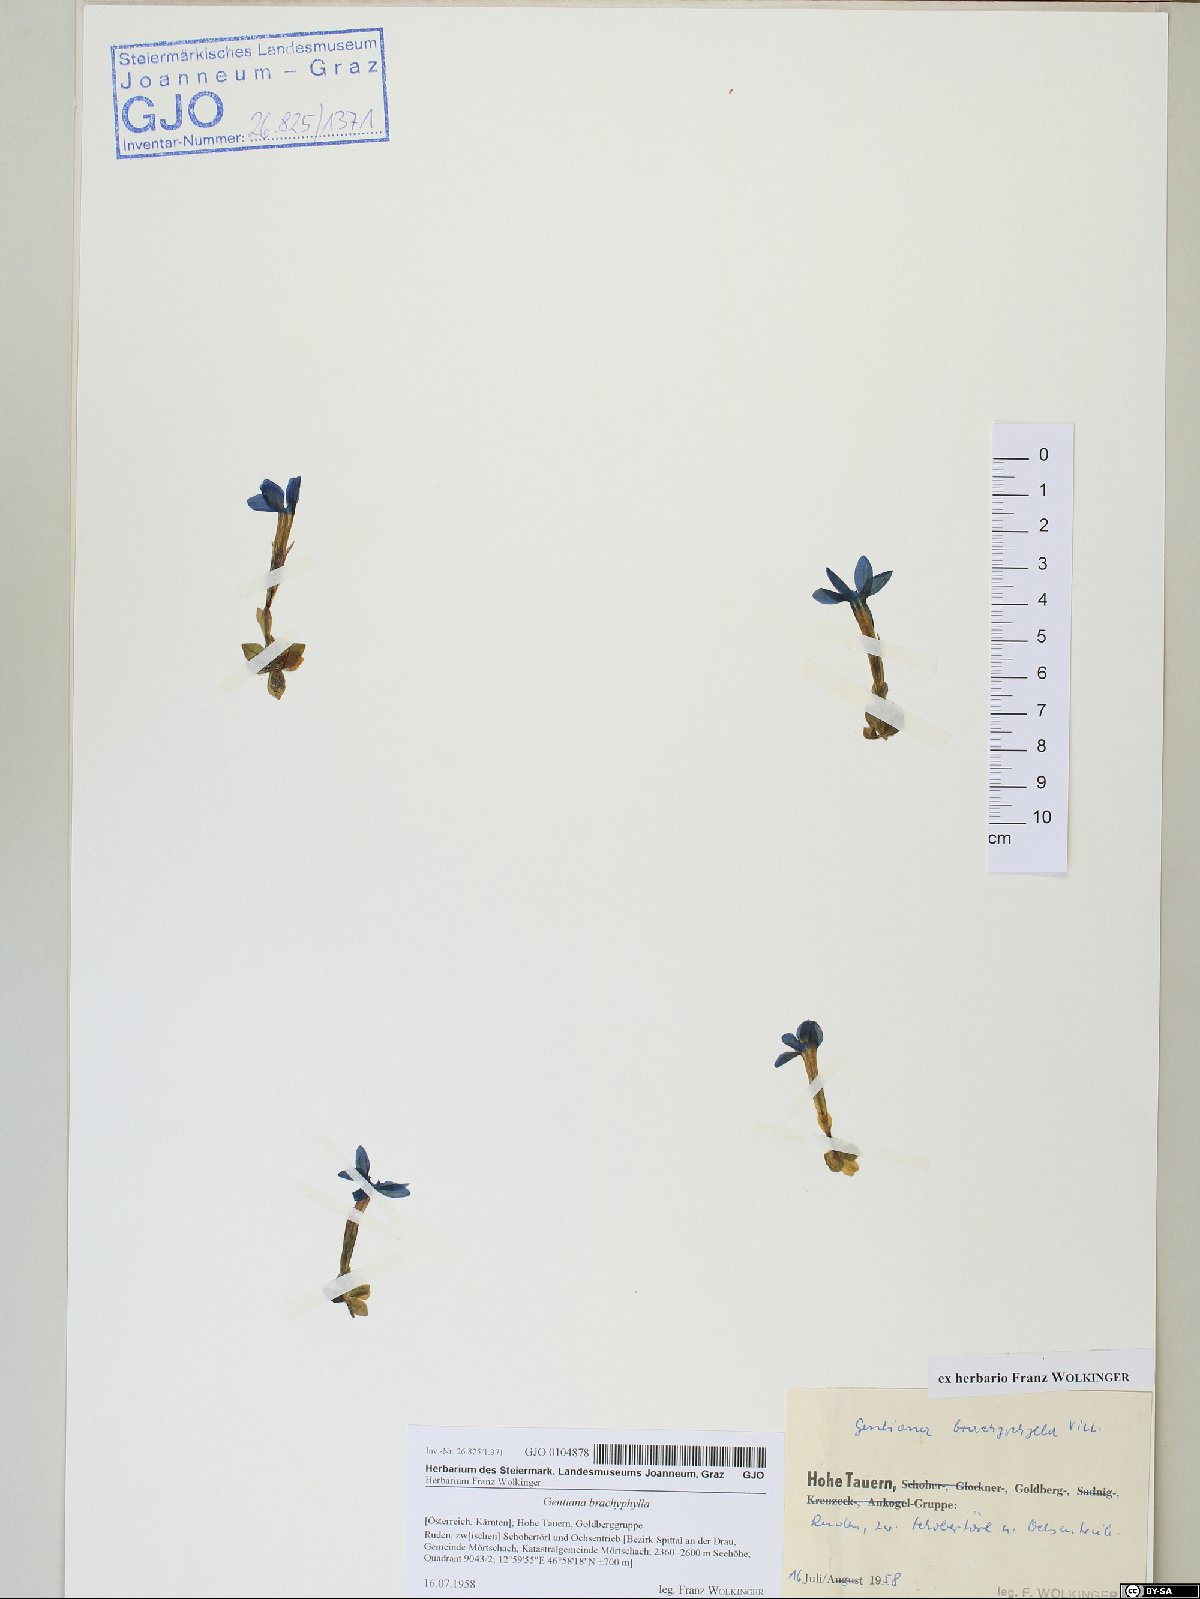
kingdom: Plantae
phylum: Tracheophyta
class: Magnoliopsida
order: Gentianales
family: Gentianaceae
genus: Gentiana
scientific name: Gentiana brachyphylla
